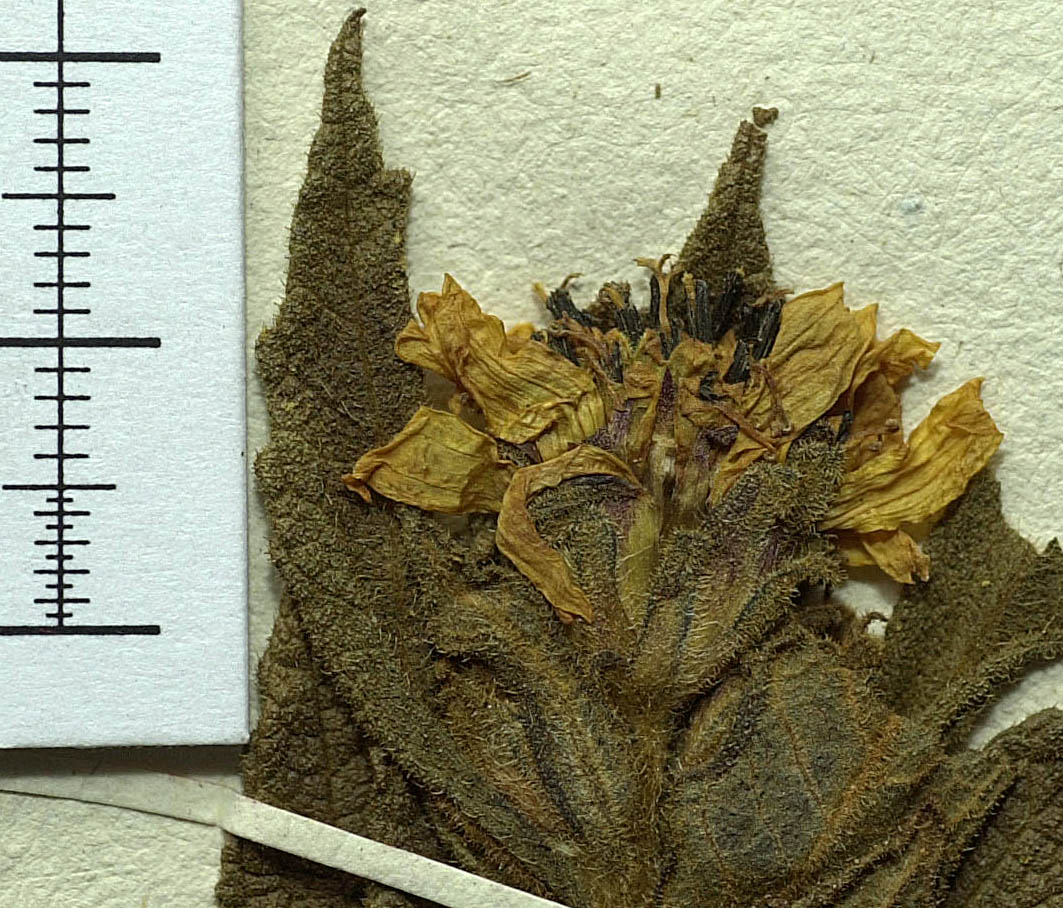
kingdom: Plantae
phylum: Tracheophyta
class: Magnoliopsida
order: Asterales
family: Asteraceae
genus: Wedelia
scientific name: Wedelia frioana
